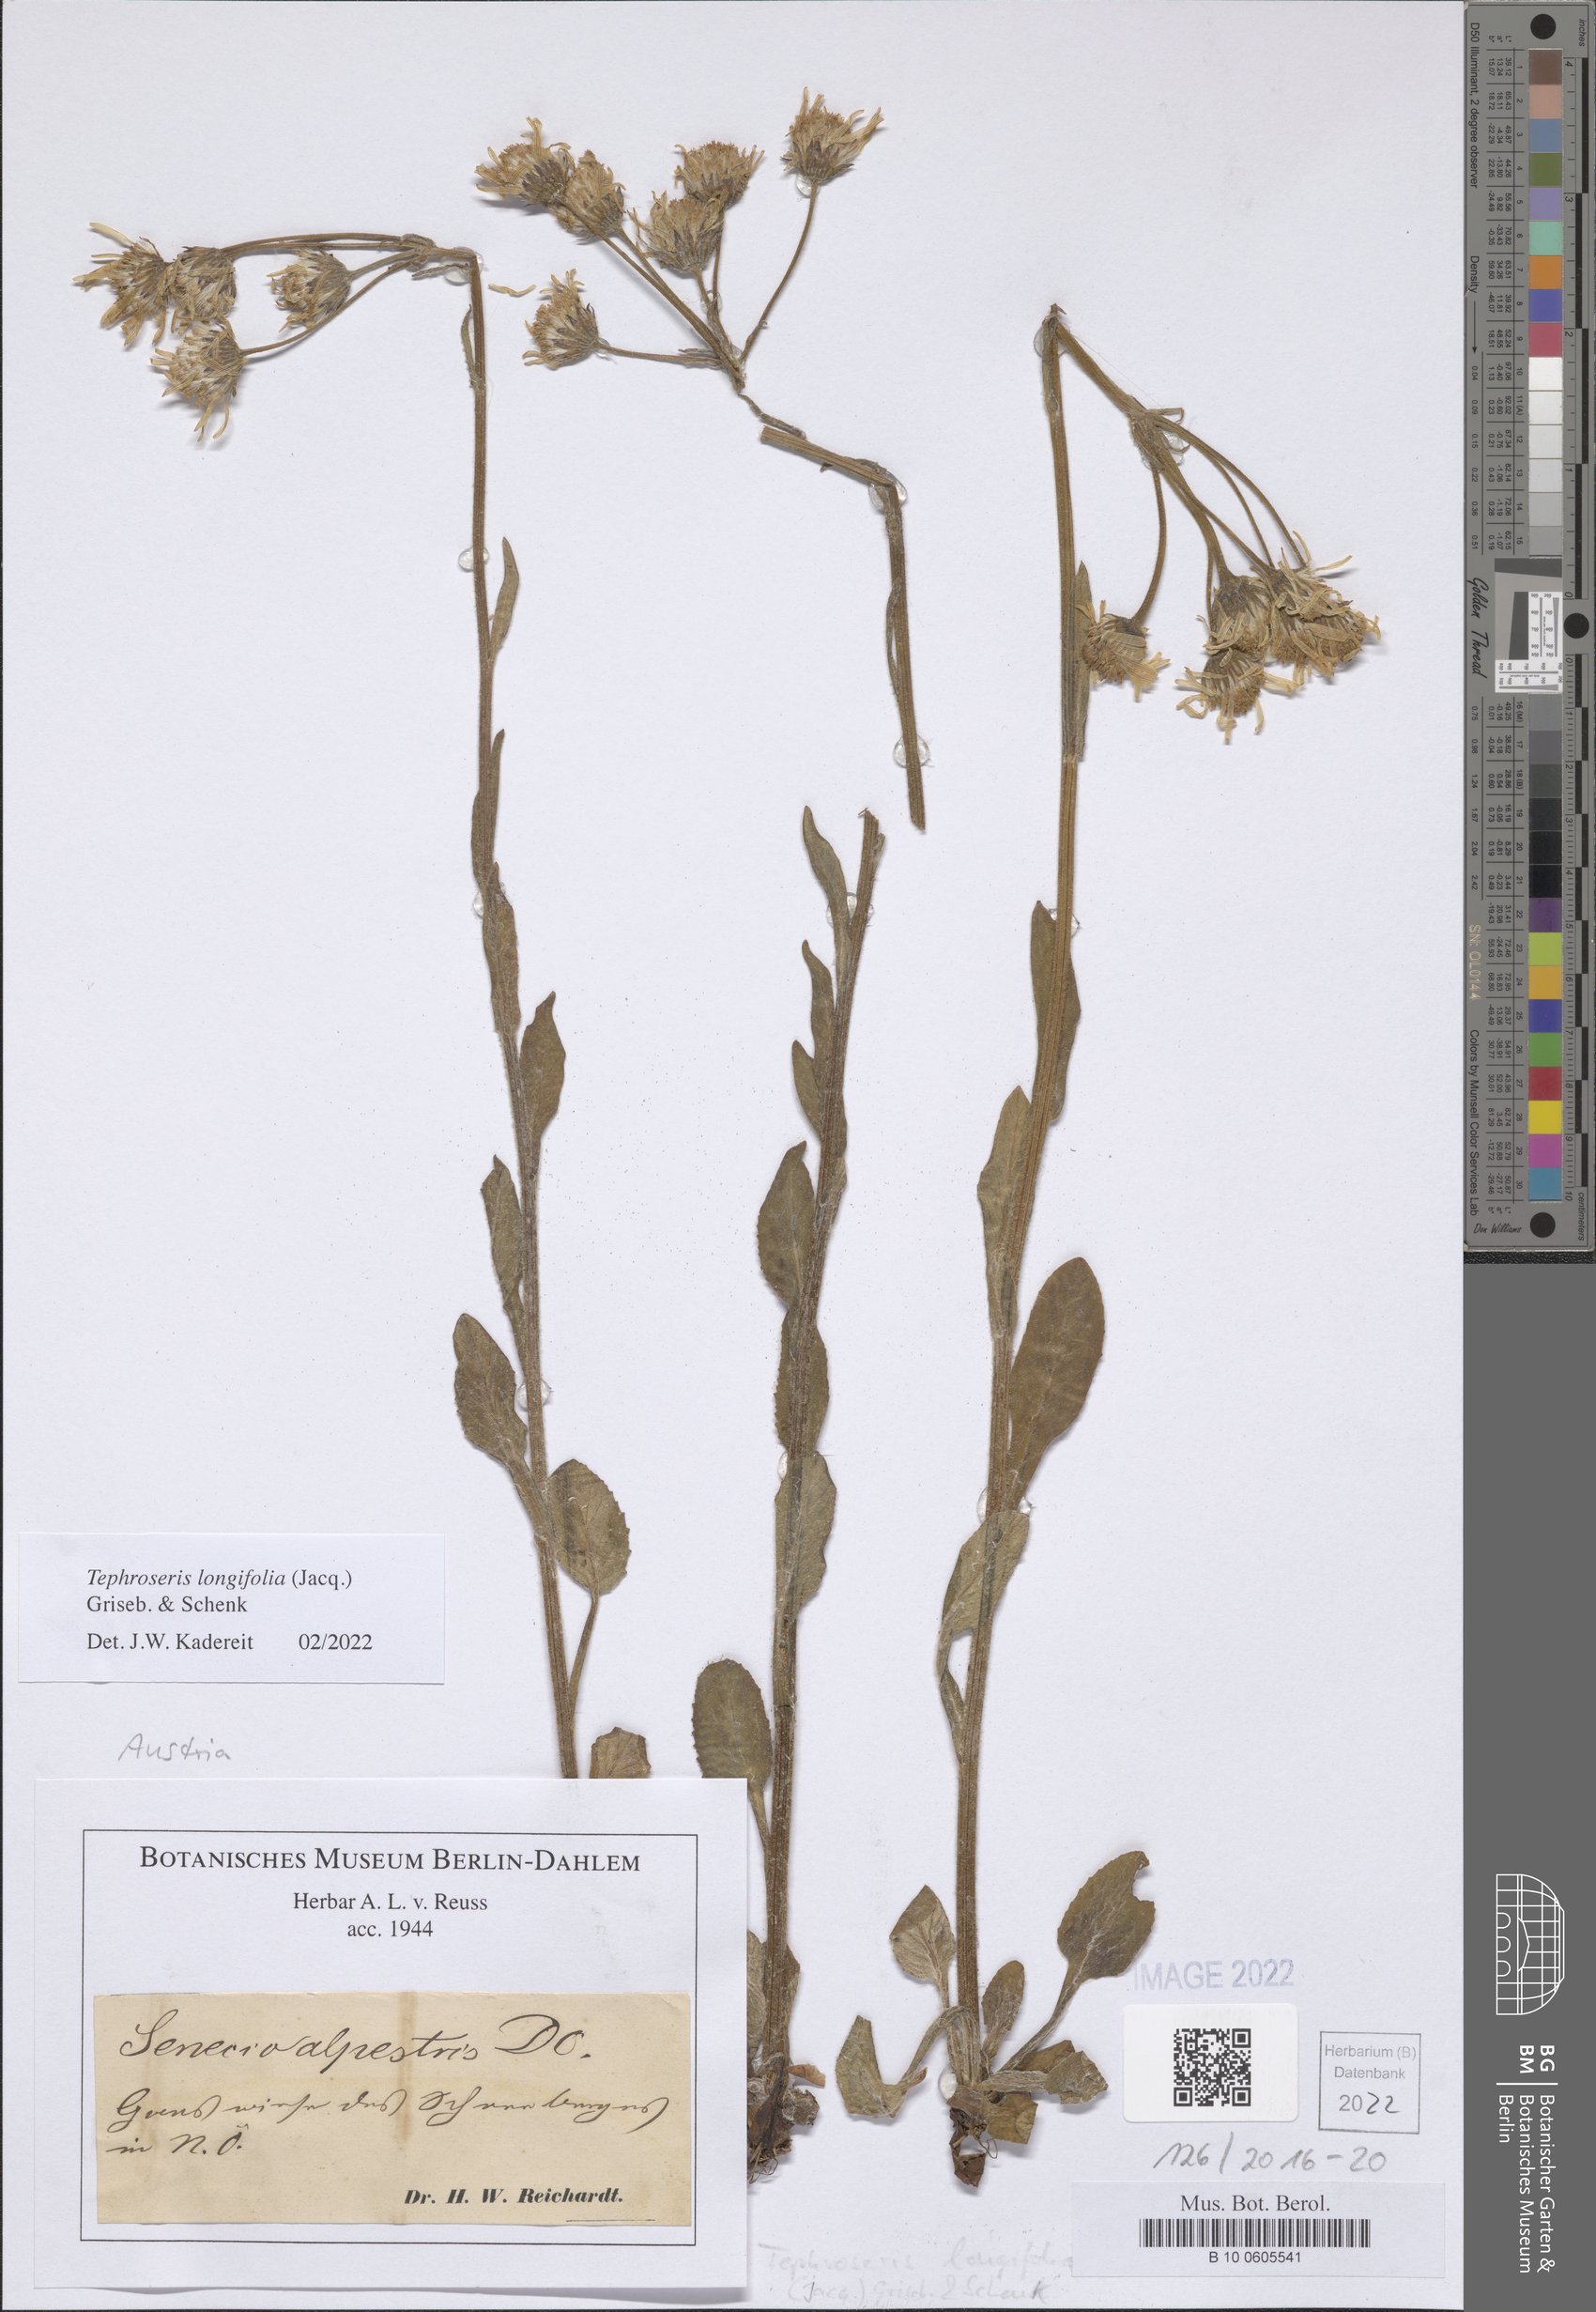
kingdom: Plantae
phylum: Tracheophyta
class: Magnoliopsida
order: Asterales
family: Asteraceae
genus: Tephroseris
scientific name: Tephroseris longifolia
